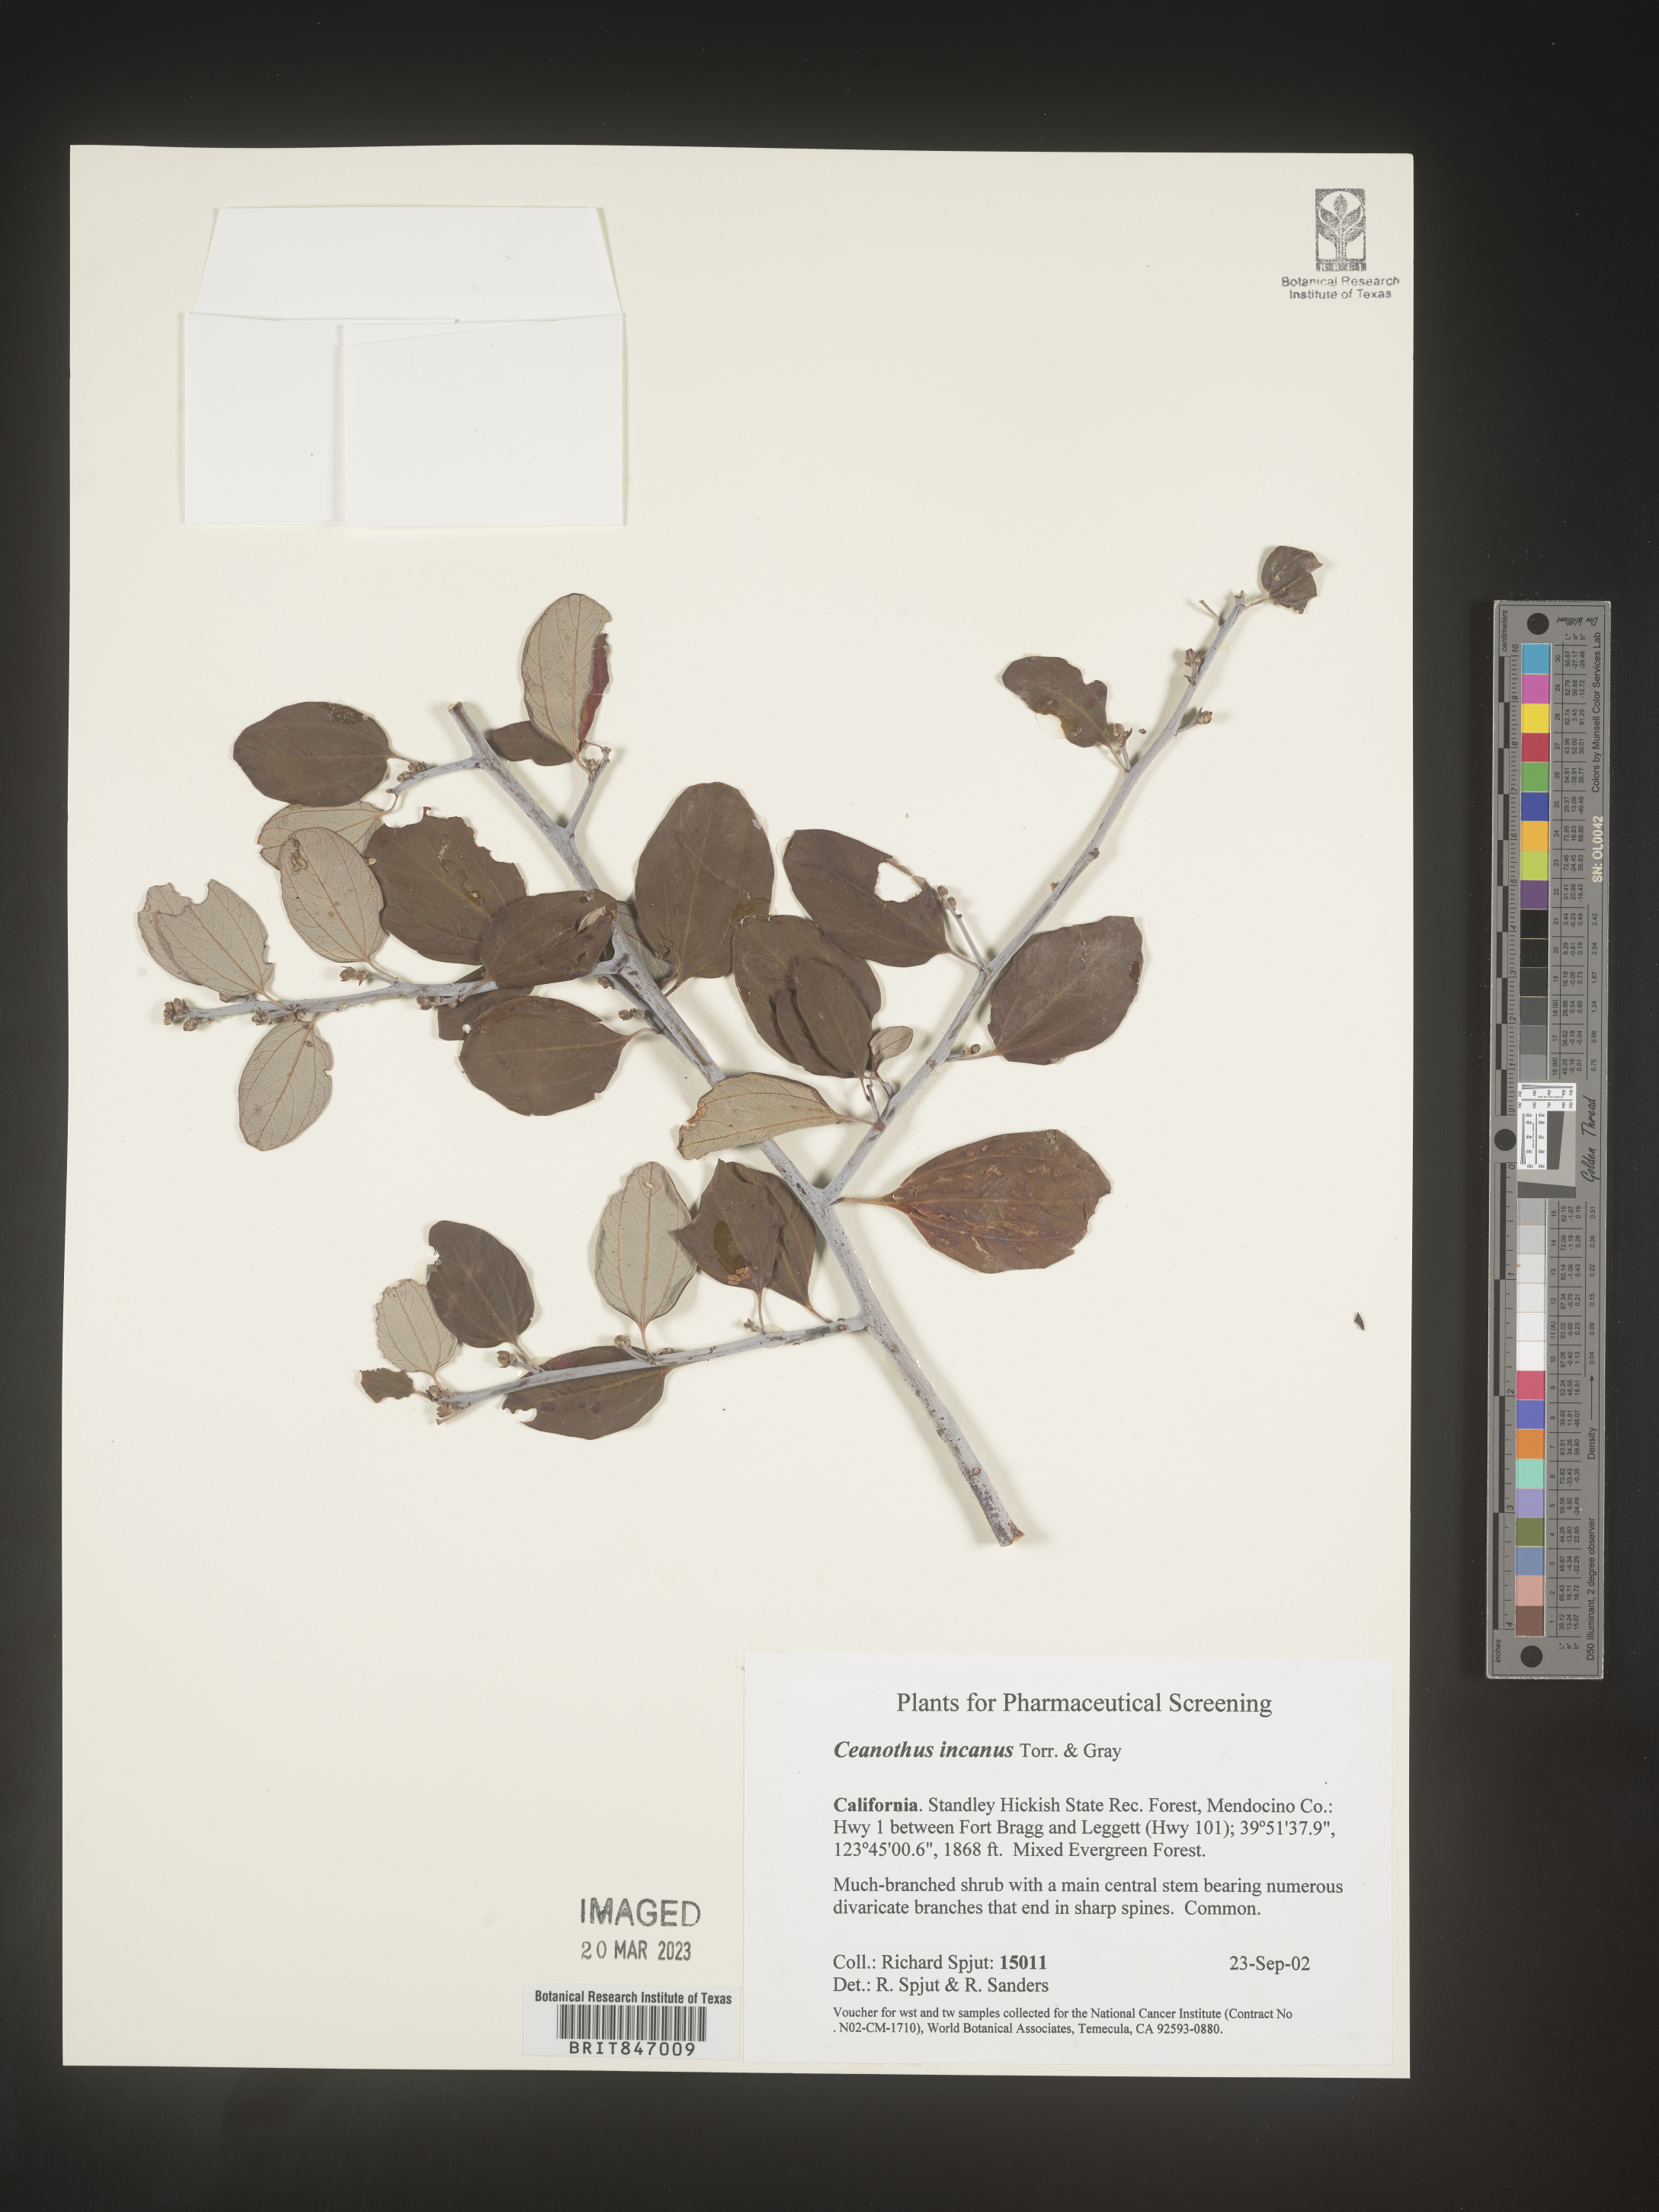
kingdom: Plantae
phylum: Tracheophyta
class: Magnoliopsida
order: Rosales
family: Rhamnaceae
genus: Ceanothus
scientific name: Ceanothus
